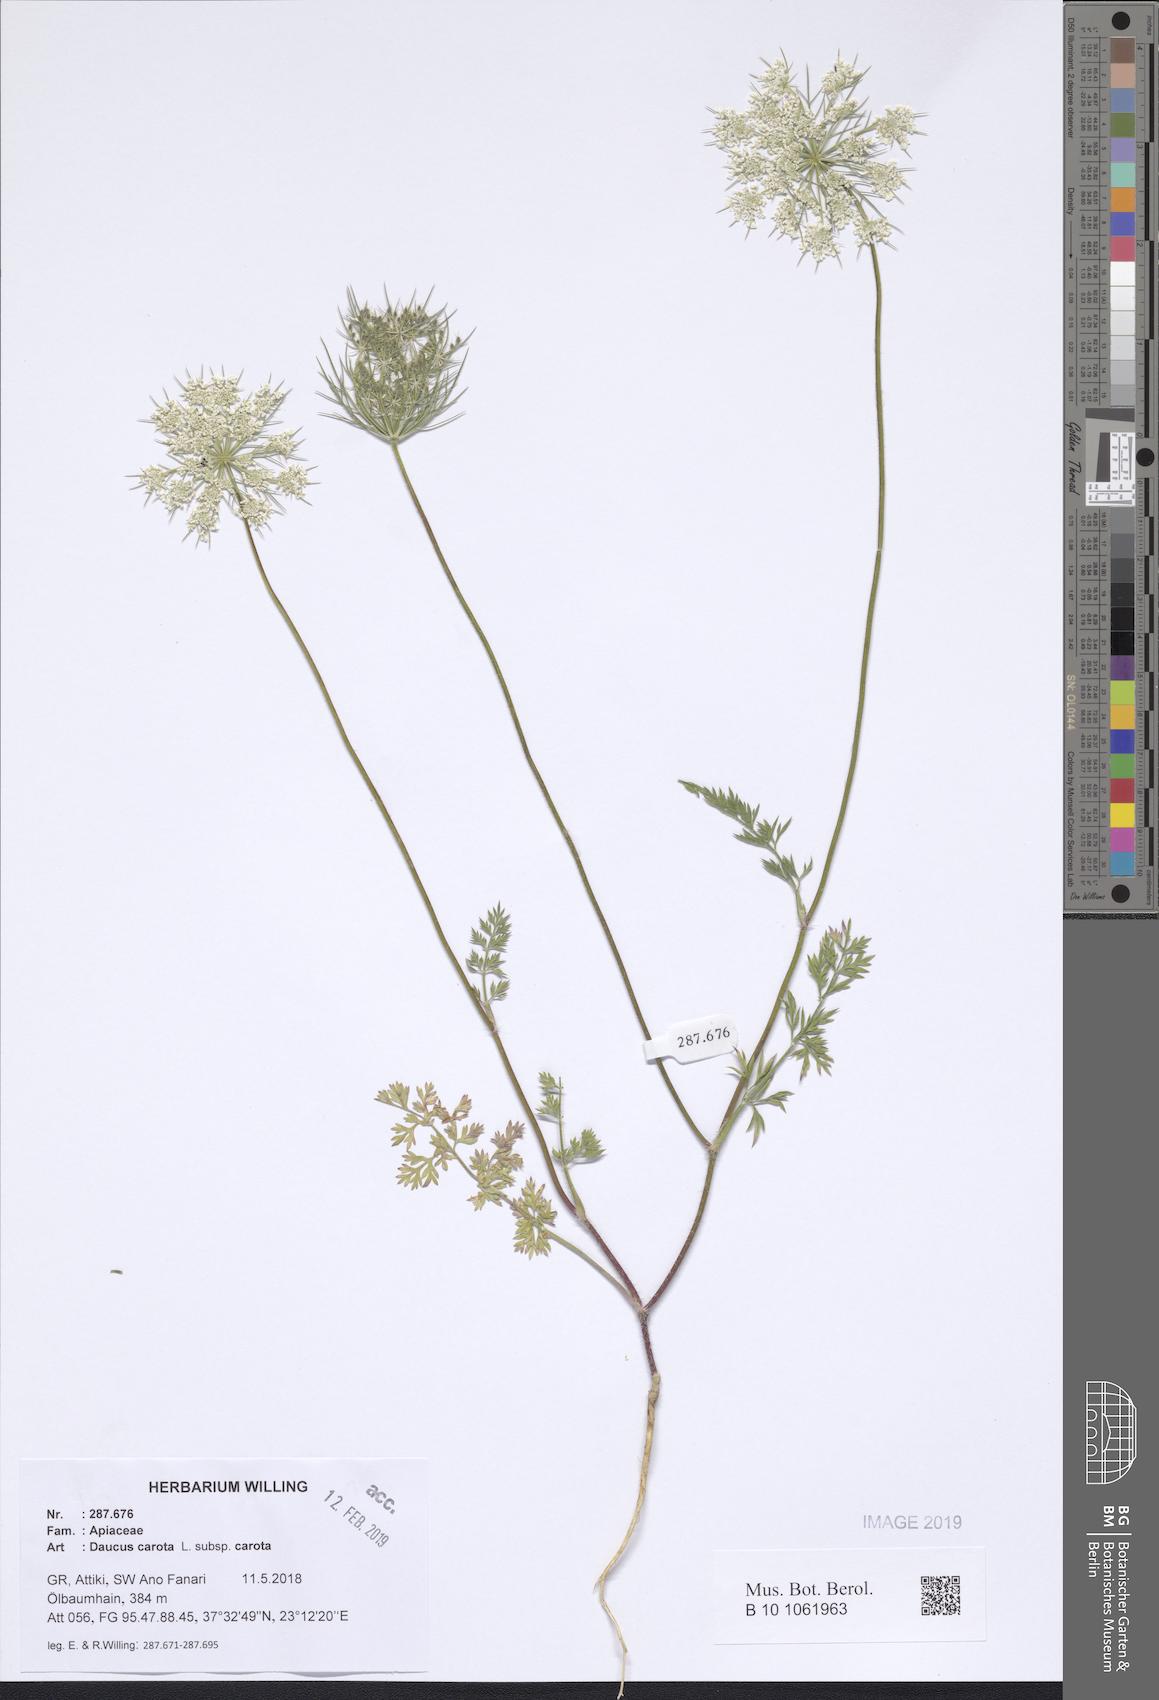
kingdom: Plantae
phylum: Tracheophyta
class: Magnoliopsida
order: Apiales
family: Apiaceae
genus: Daucus
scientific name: Daucus carota
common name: Wild carrot
